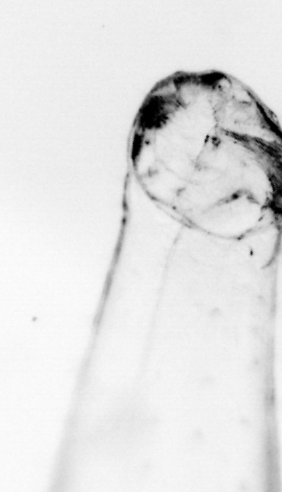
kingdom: Animalia
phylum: Chaetognatha
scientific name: Chaetognatha
